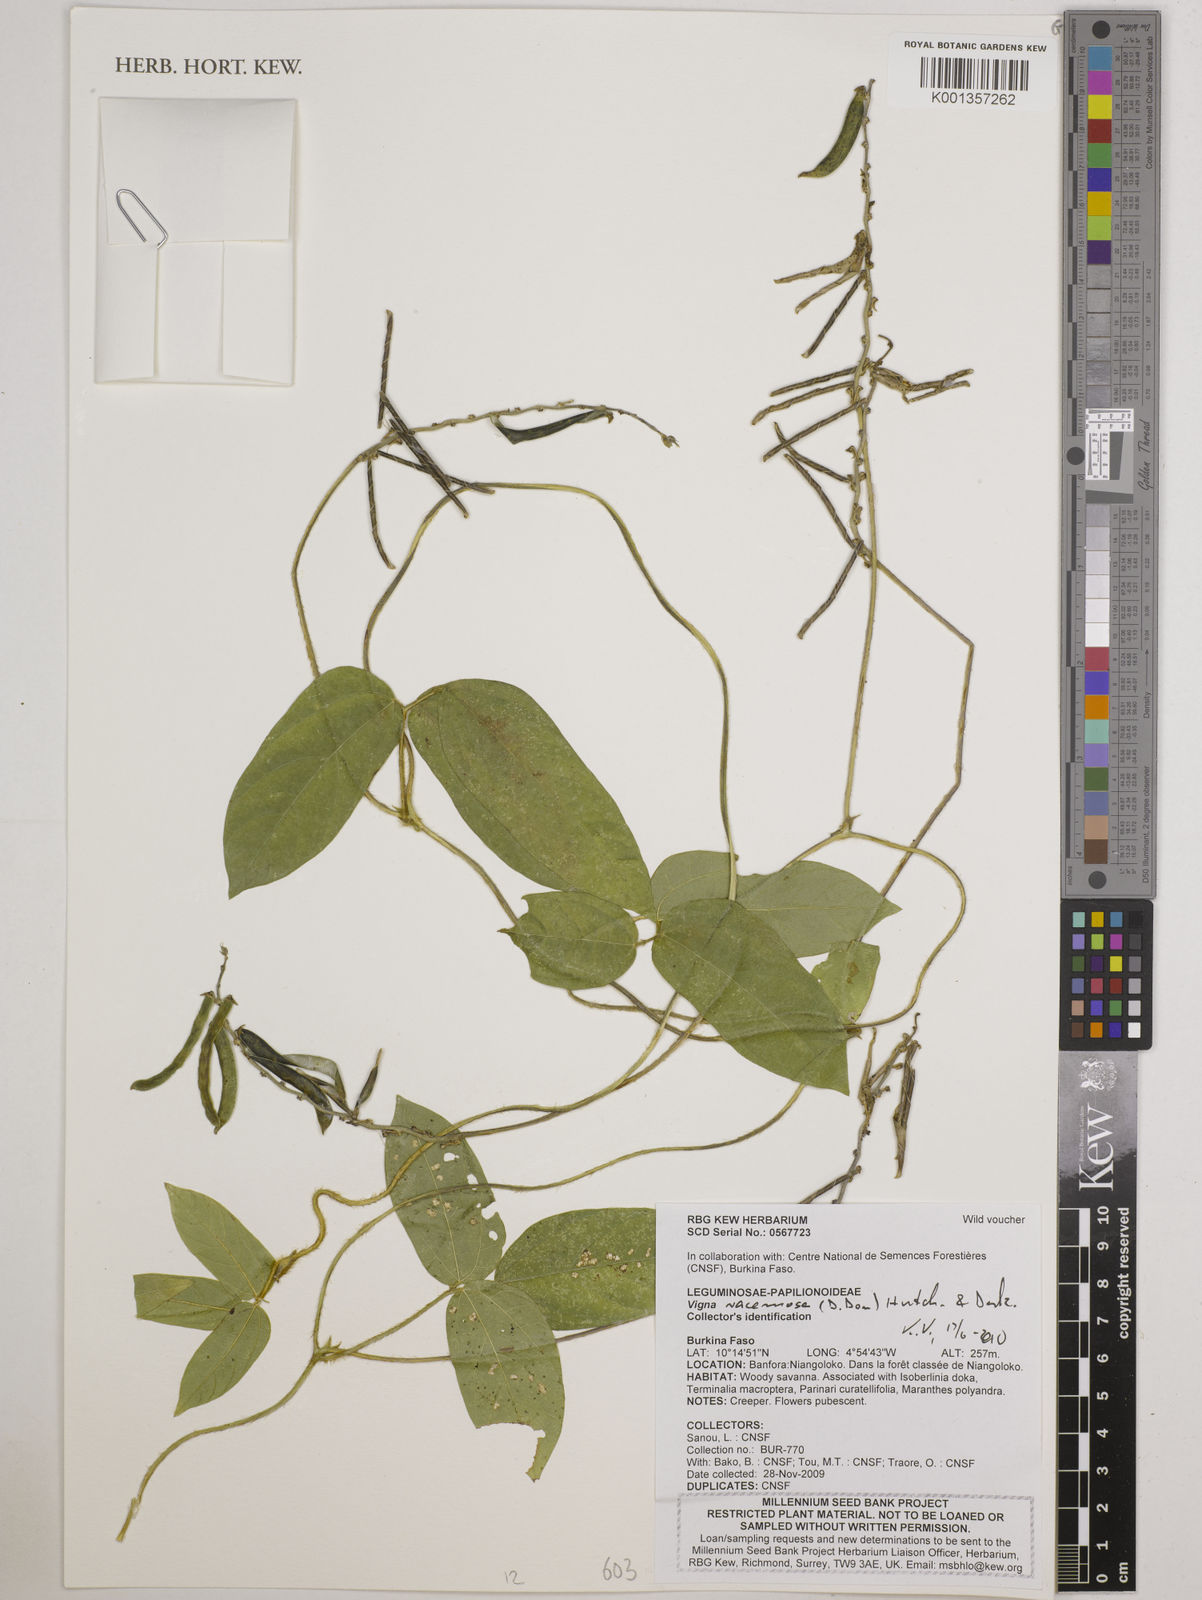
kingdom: Plantae
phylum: Tracheophyta
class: Magnoliopsida
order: Fabales
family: Fabaceae
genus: Vigna
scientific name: Vigna racemosa
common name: Beans not eaten
